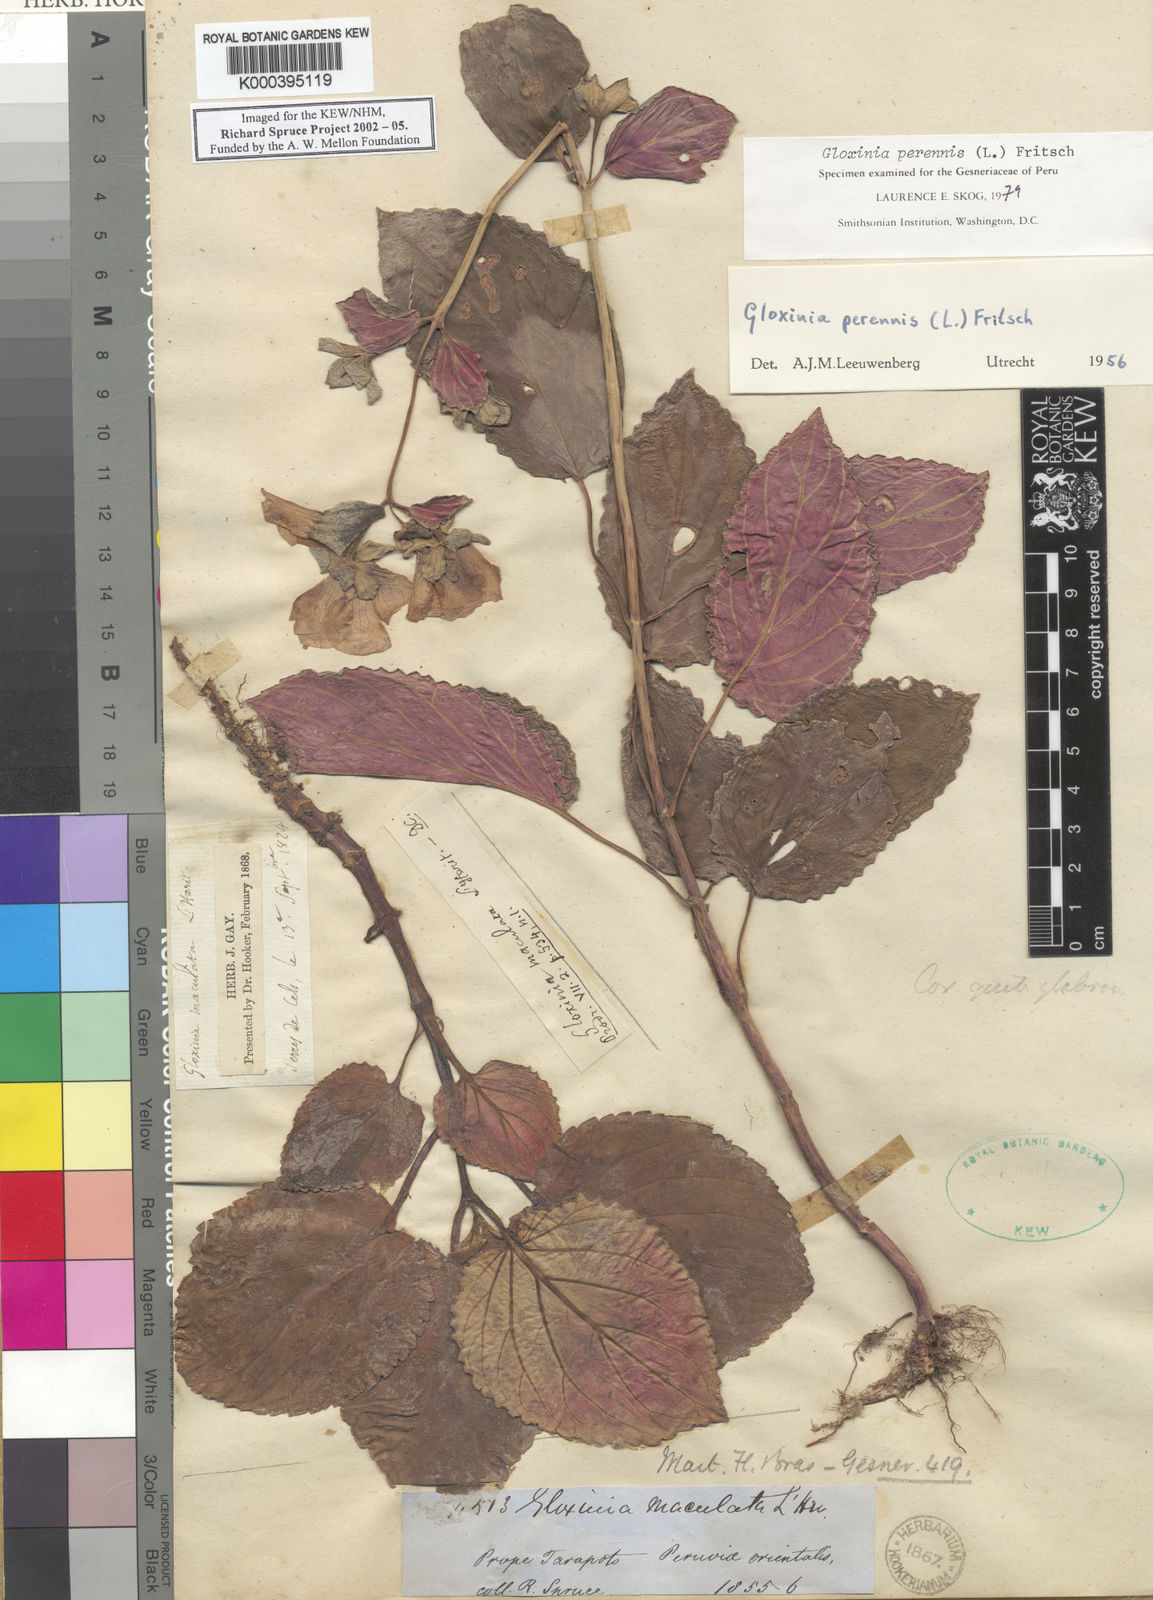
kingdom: Plantae
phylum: Tracheophyta
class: Magnoliopsida
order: Lamiales
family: Gesneriaceae
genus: Gloxinia
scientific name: Gloxinia
